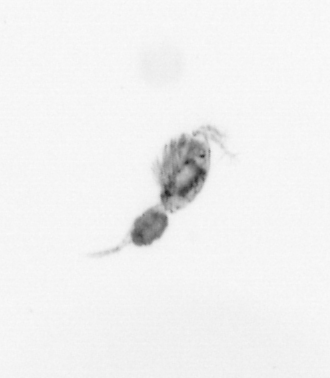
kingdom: Animalia
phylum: Arthropoda
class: Copepoda
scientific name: Copepoda
